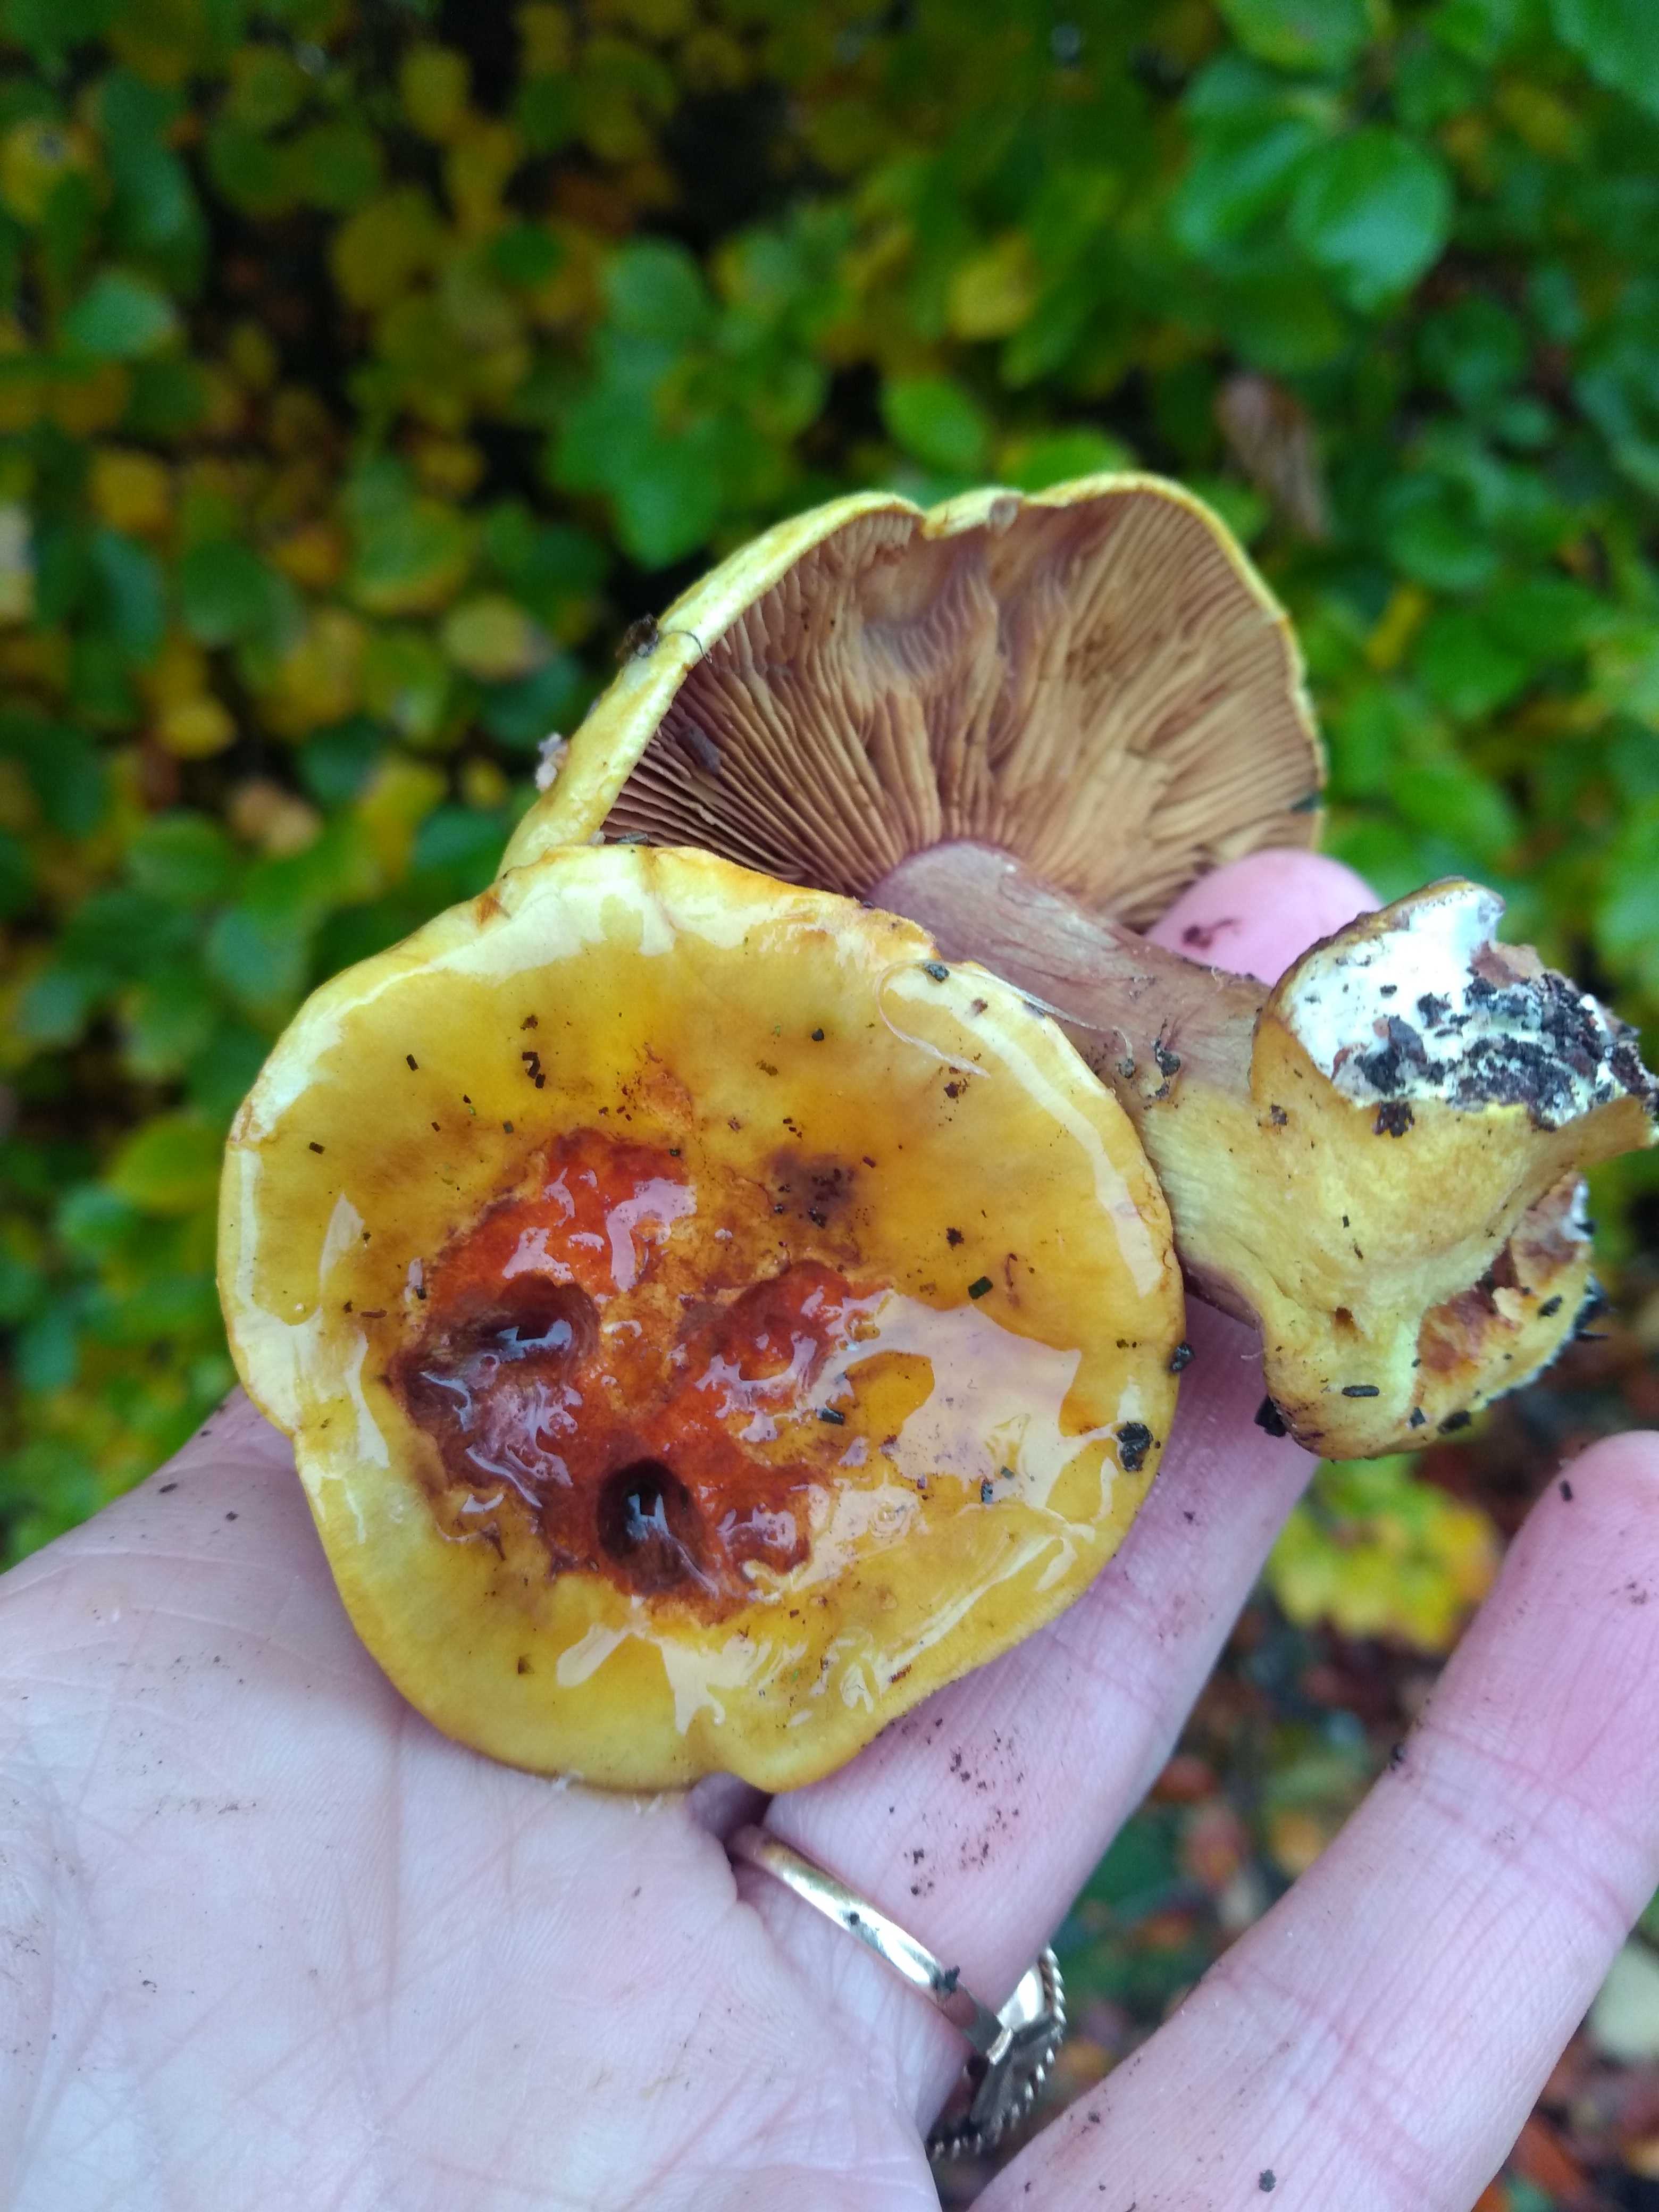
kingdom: Fungi
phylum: Basidiomycota
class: Agaricomycetes
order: Agaricales
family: Cortinariaceae
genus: Calonarius
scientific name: Calonarius olearioides
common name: safran-slørhat
